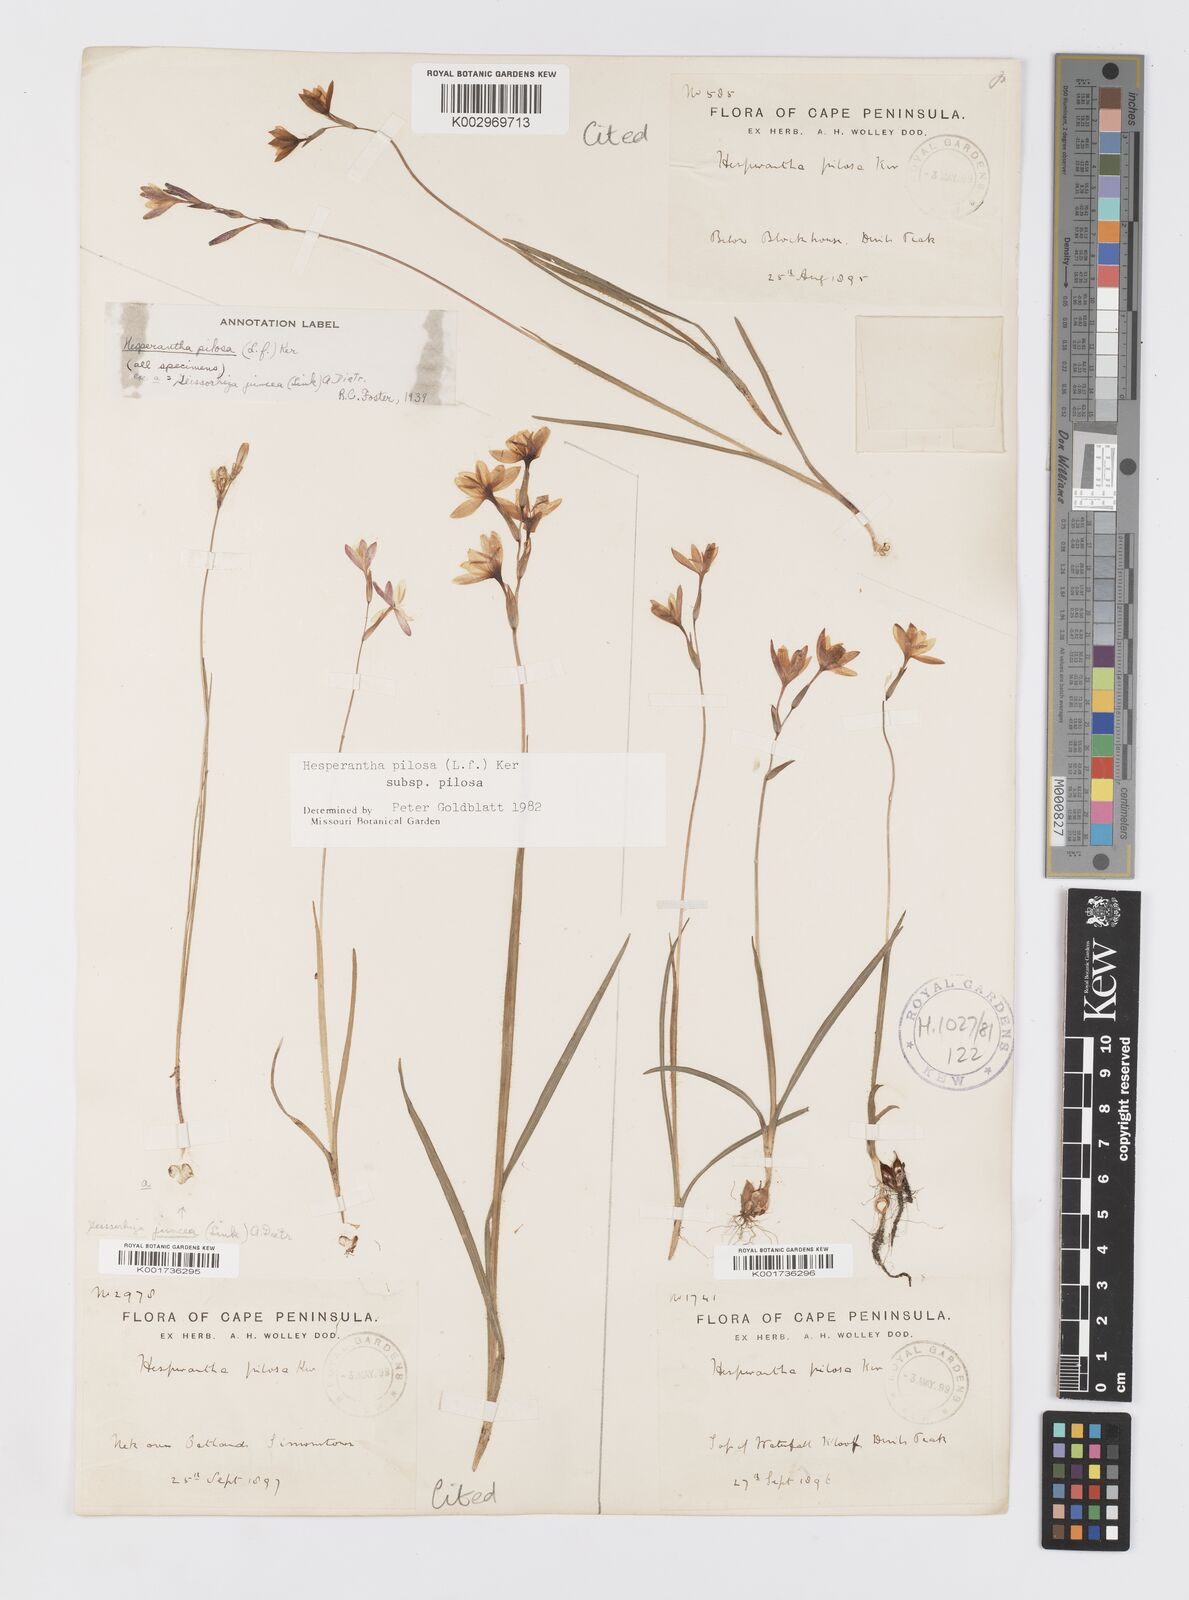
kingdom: Plantae
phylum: Tracheophyta
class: Liliopsida
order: Asparagales
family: Iridaceae
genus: Hesperantha
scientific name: Hesperantha pilosa
